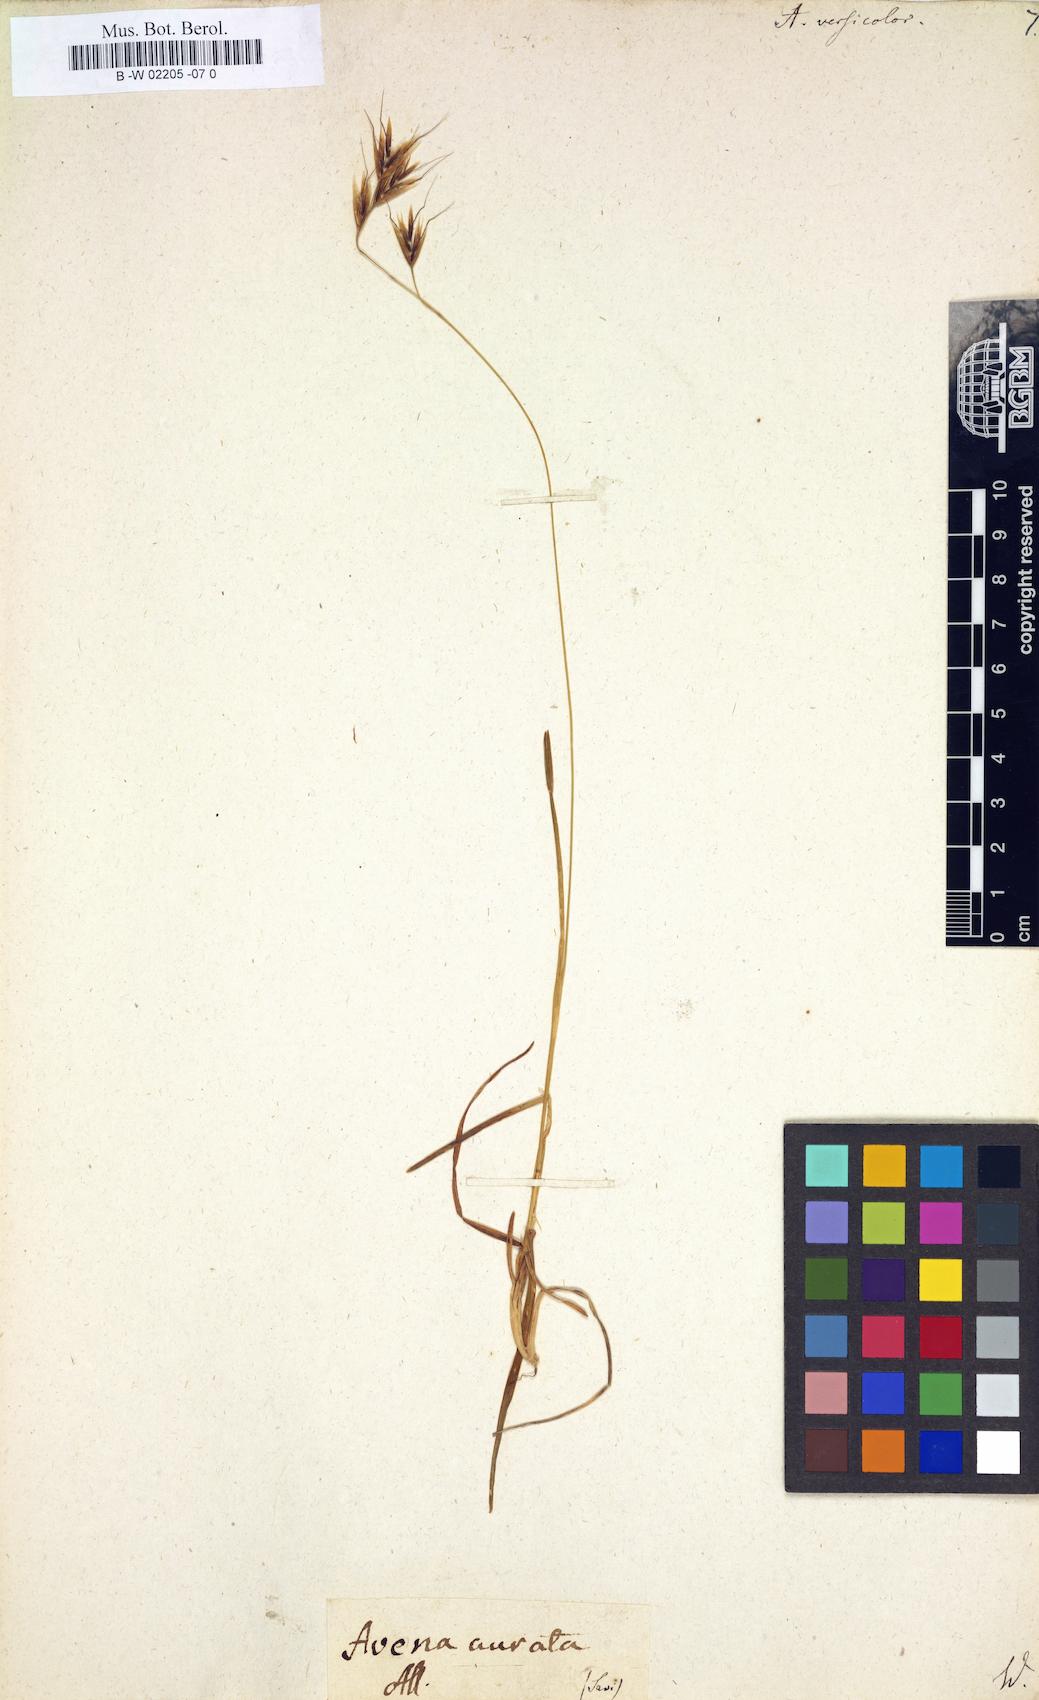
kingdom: Plantae
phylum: Tracheophyta
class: Liliopsida
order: Poales
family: Poaceae
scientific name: Poaceae
